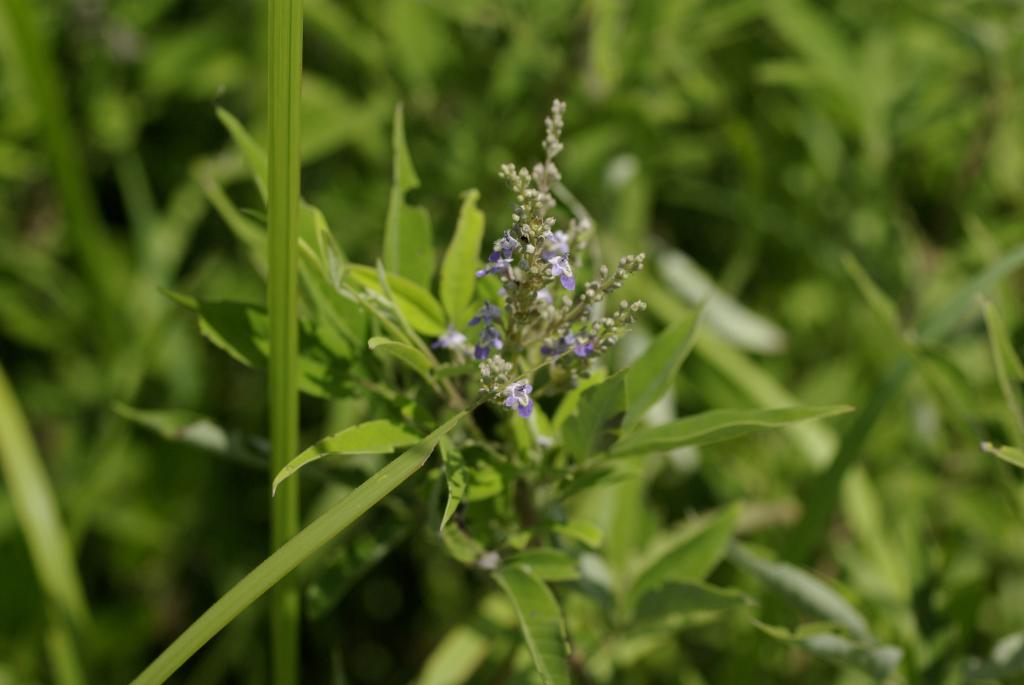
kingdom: Plantae
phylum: Tracheophyta
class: Magnoliopsida
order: Lamiales
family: Lamiaceae
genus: Vitex
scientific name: Vitex negundo
